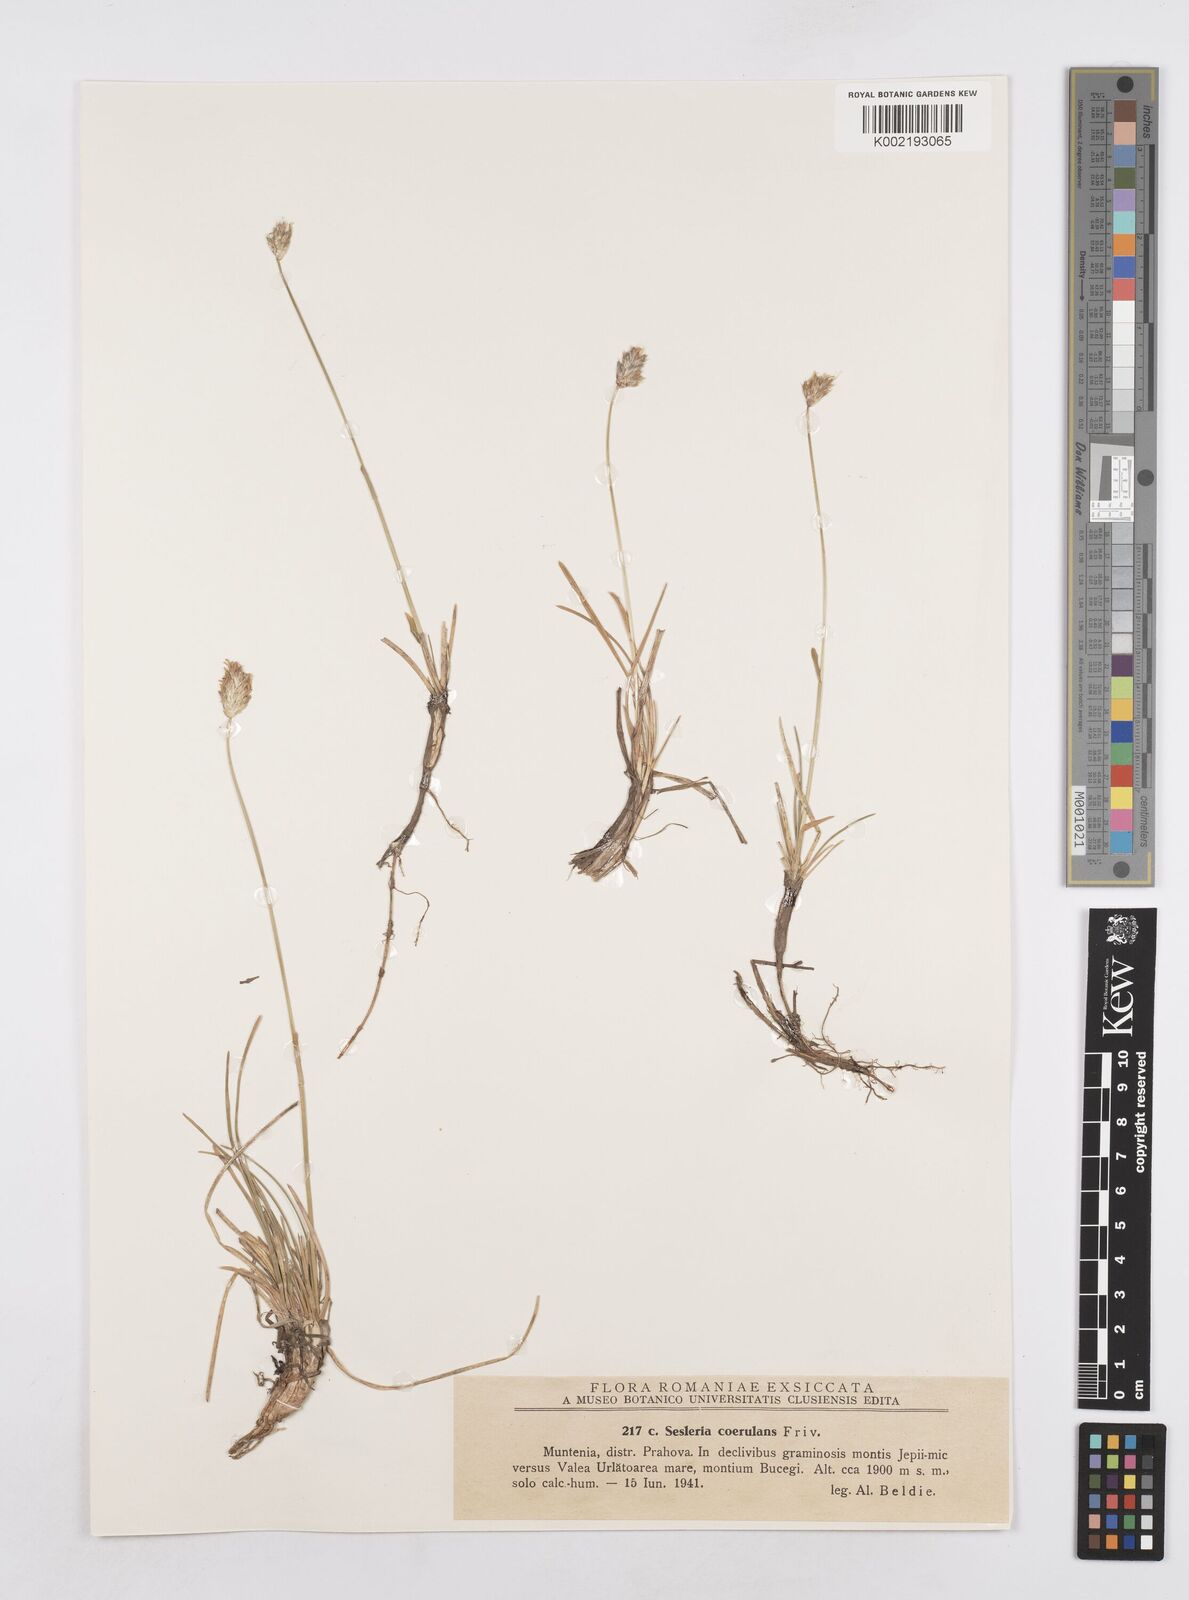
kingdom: Plantae
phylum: Tracheophyta
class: Liliopsida
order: Poales
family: Poaceae
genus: Sesleria
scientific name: Sesleria caerulea
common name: Blue moor-grass
